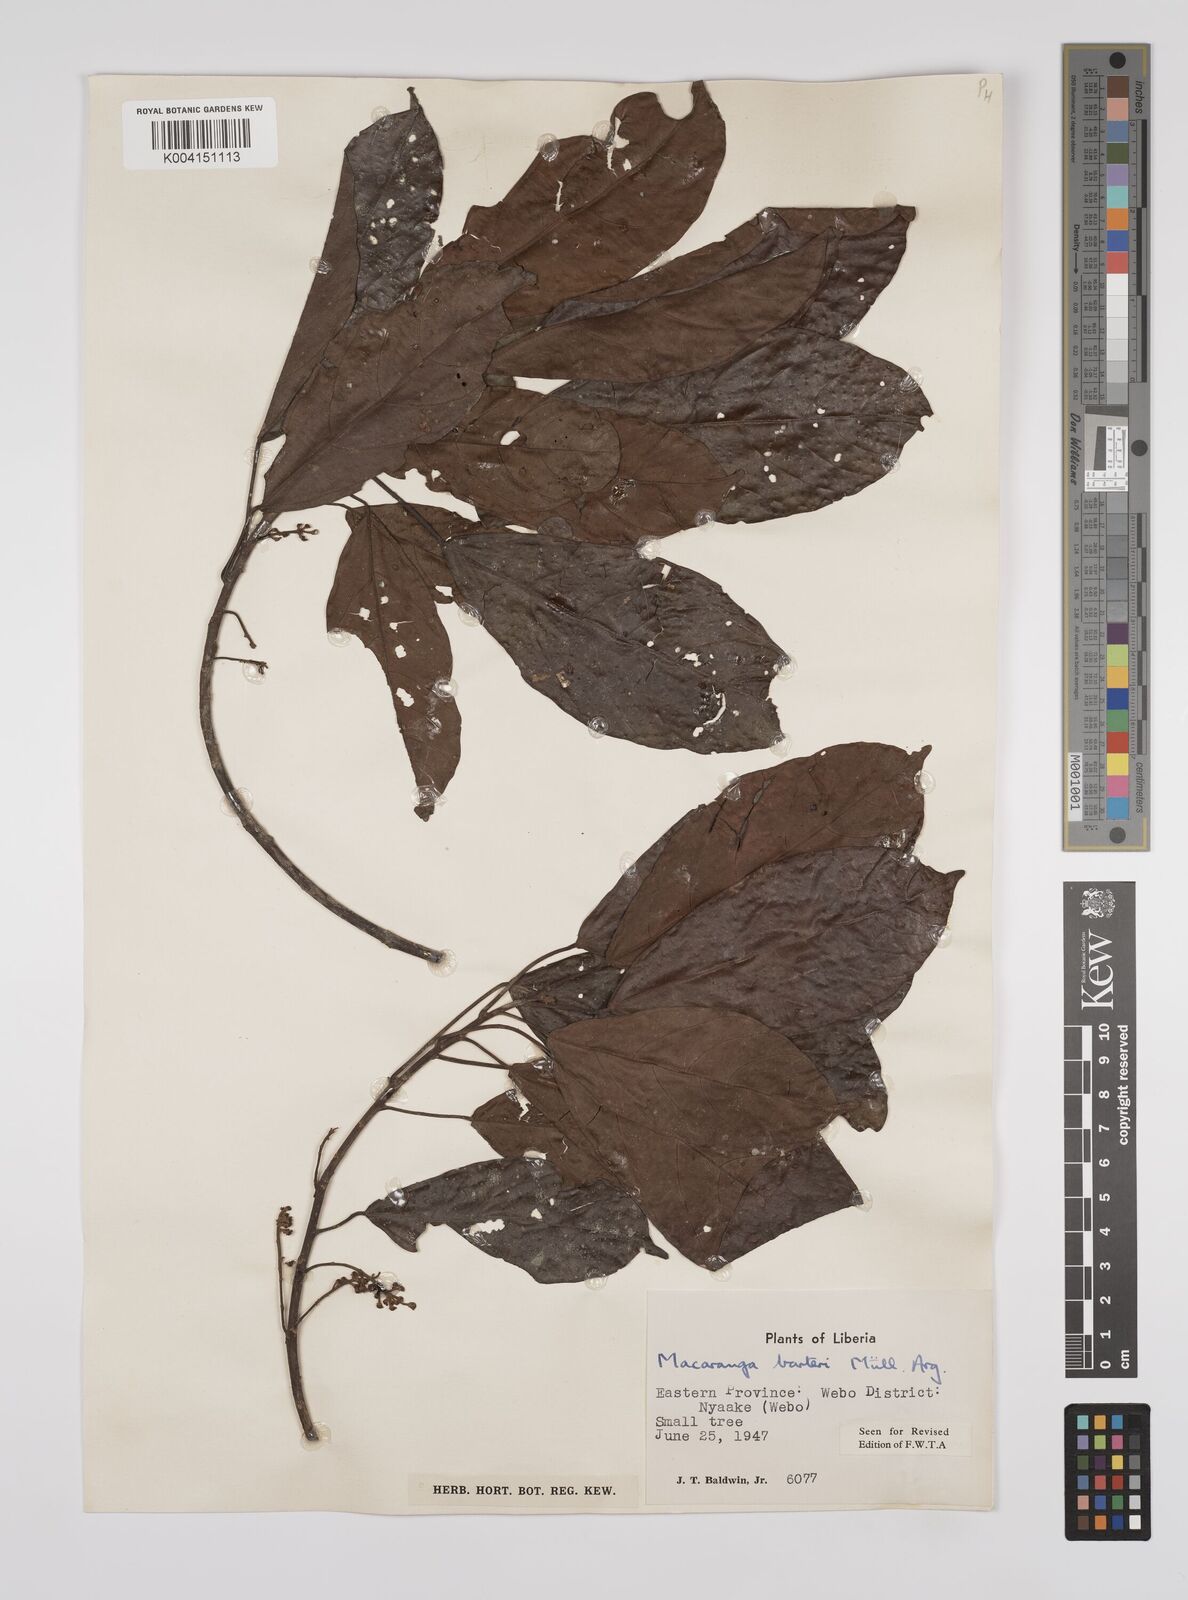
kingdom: Plantae
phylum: Tracheophyta
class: Magnoliopsida
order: Malpighiales
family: Euphorbiaceae
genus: Macaranga
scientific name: Macaranga barteri
